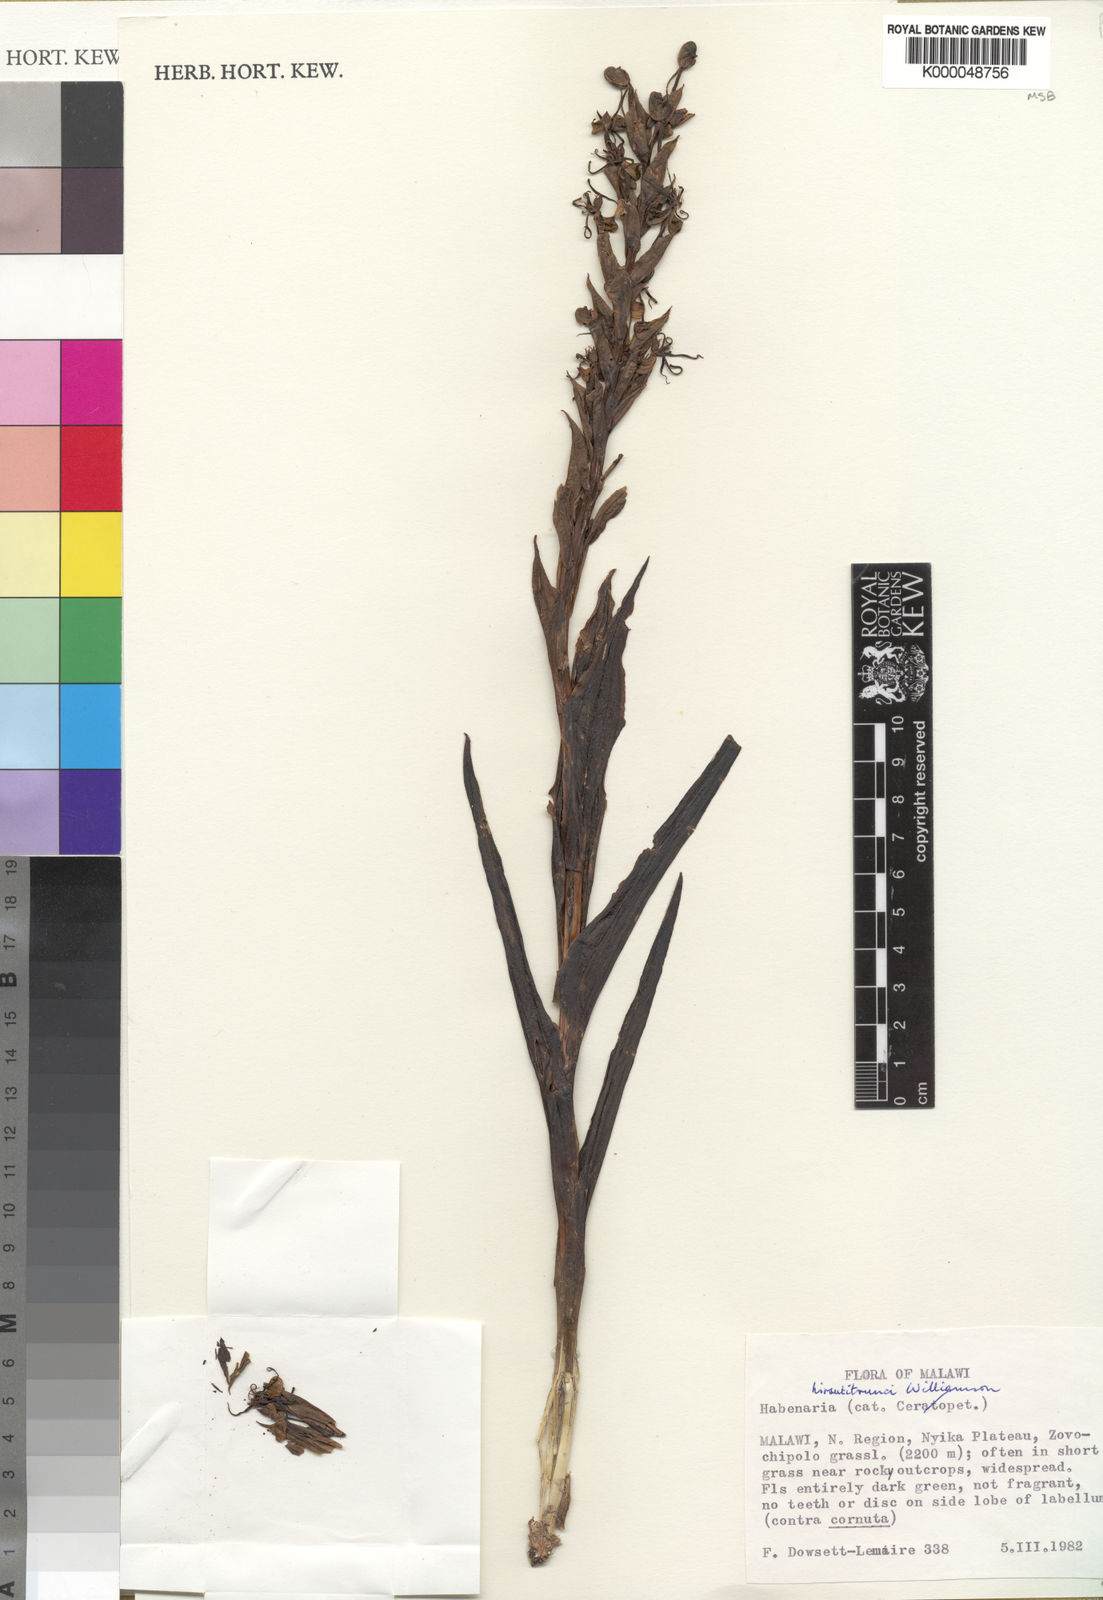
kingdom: Plantae
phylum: Tracheophyta
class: Liliopsida
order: Asparagales
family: Orchidaceae
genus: Habenaria
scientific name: Habenaria
